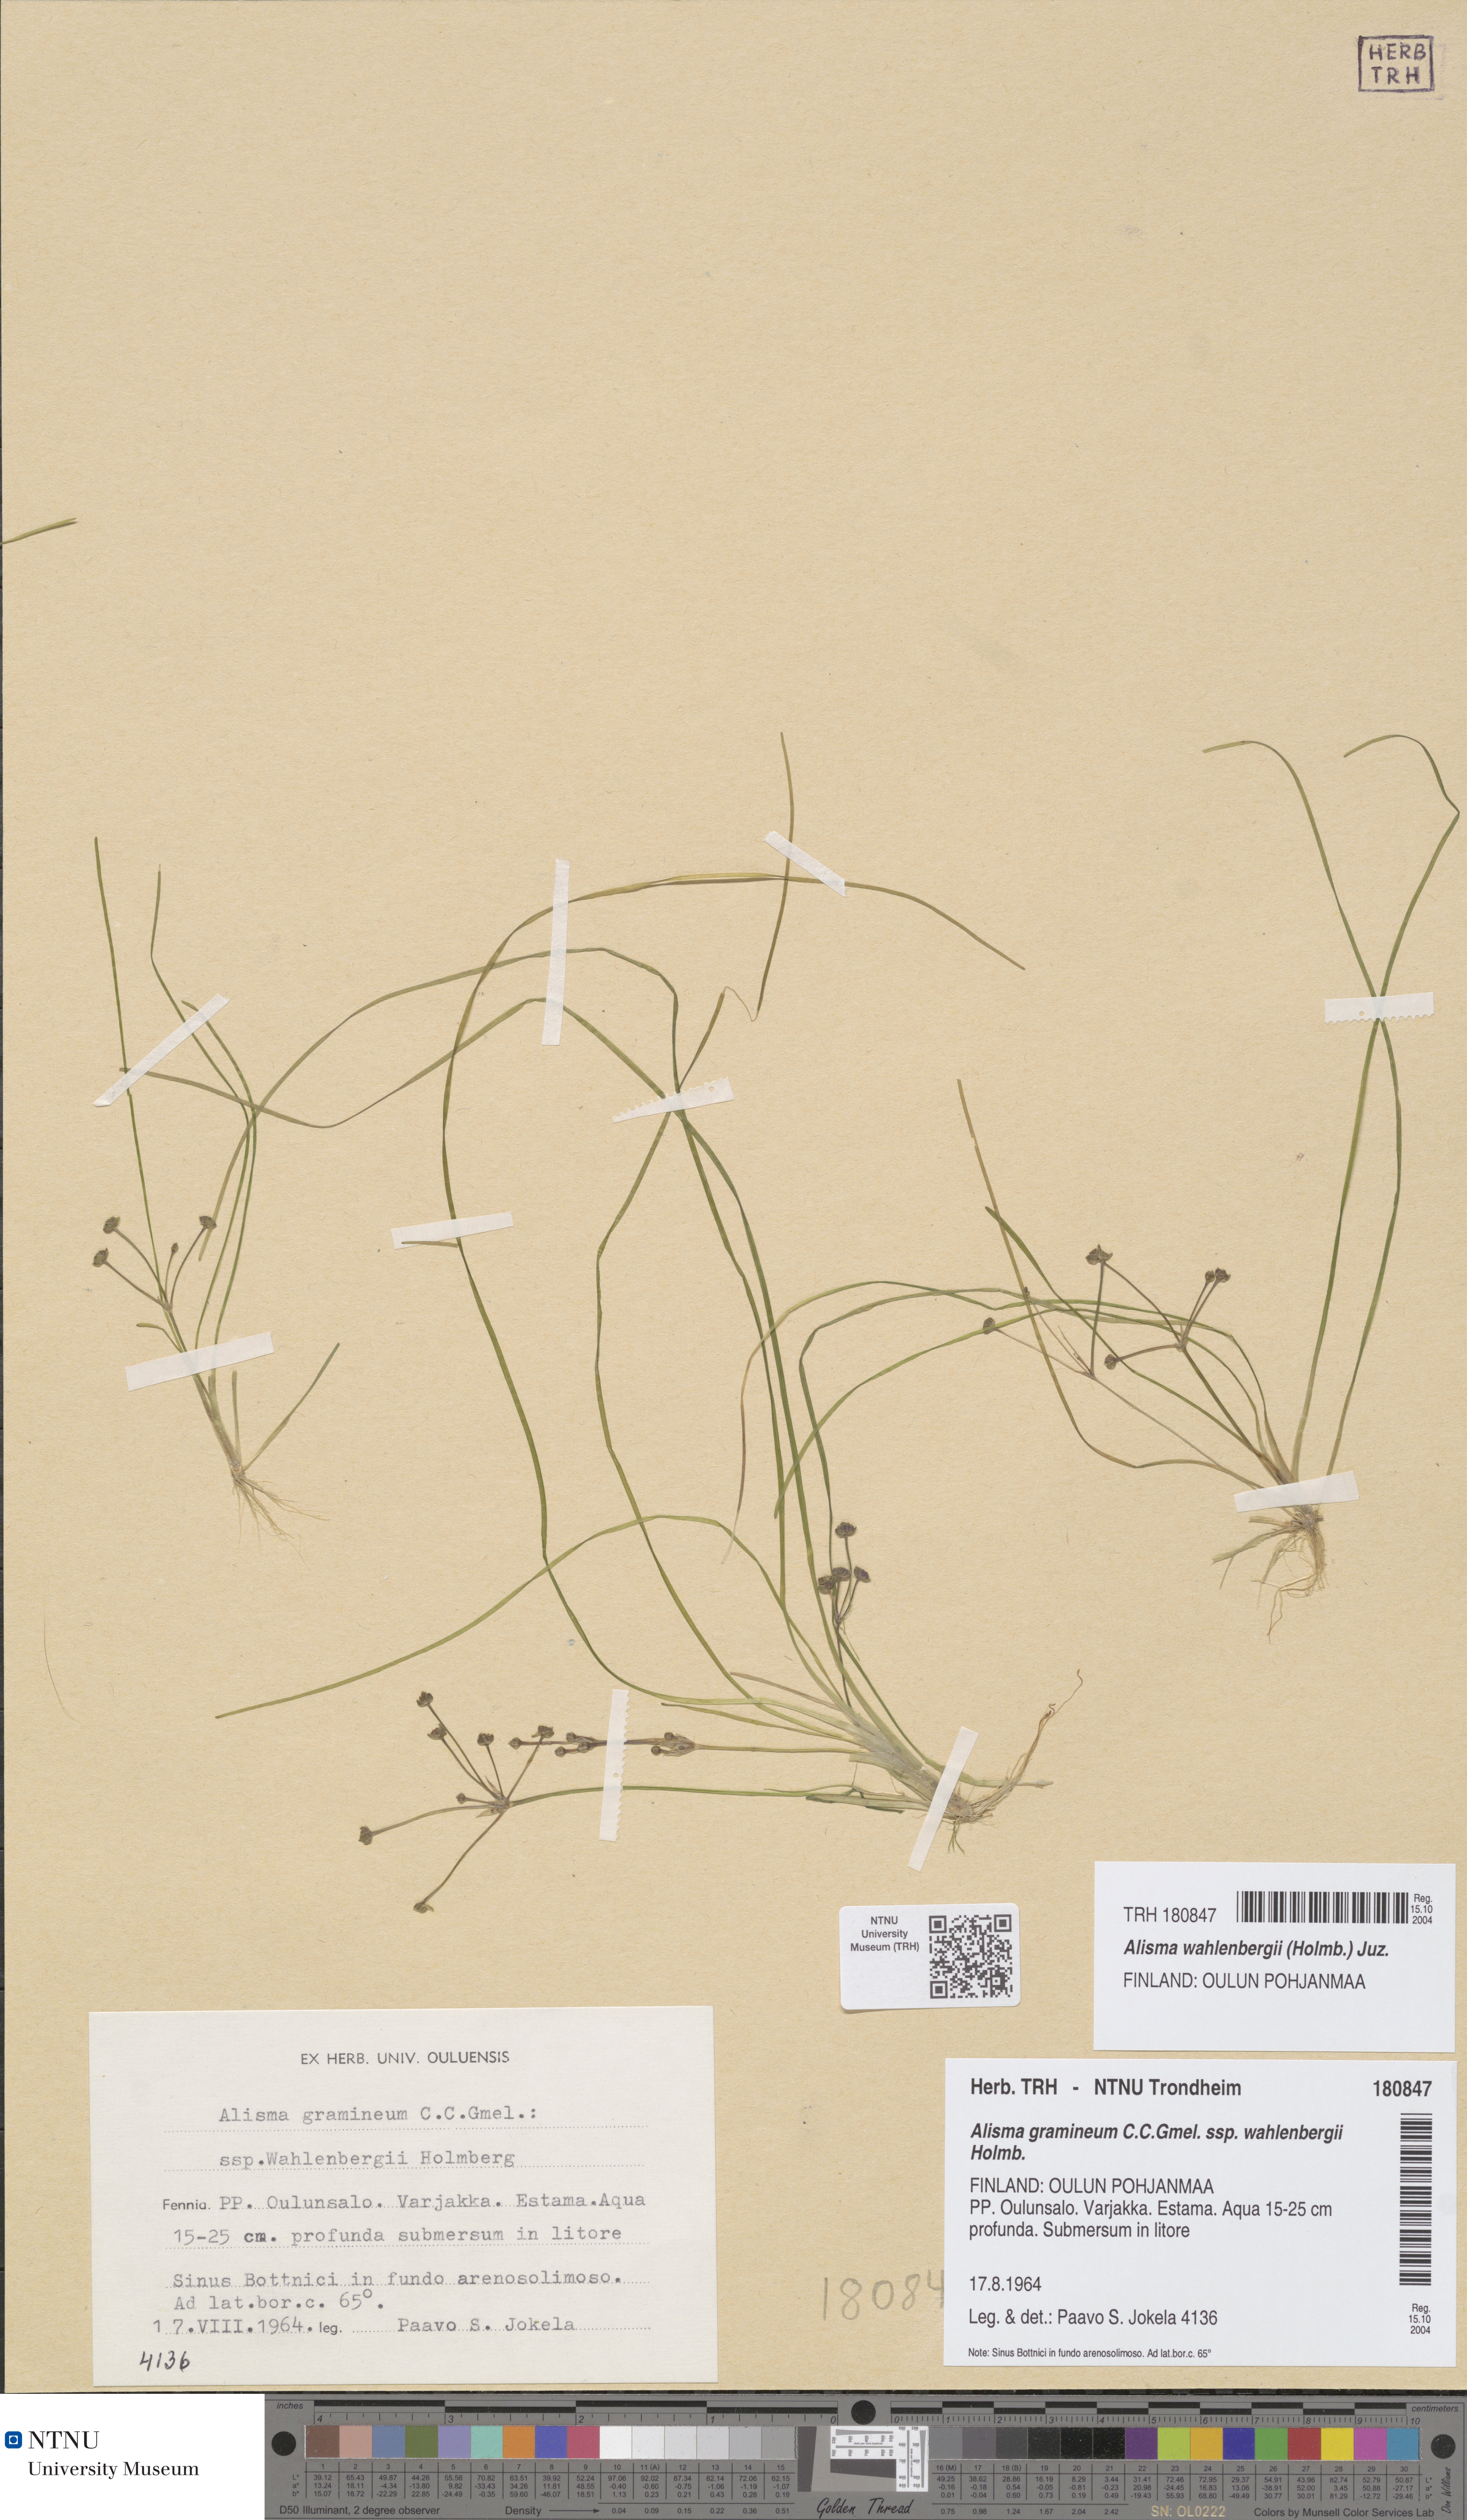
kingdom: Plantae
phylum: Tracheophyta
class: Liliopsida
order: Alismatales
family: Alismataceae
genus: Alisma
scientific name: Alisma wahlenbergii
